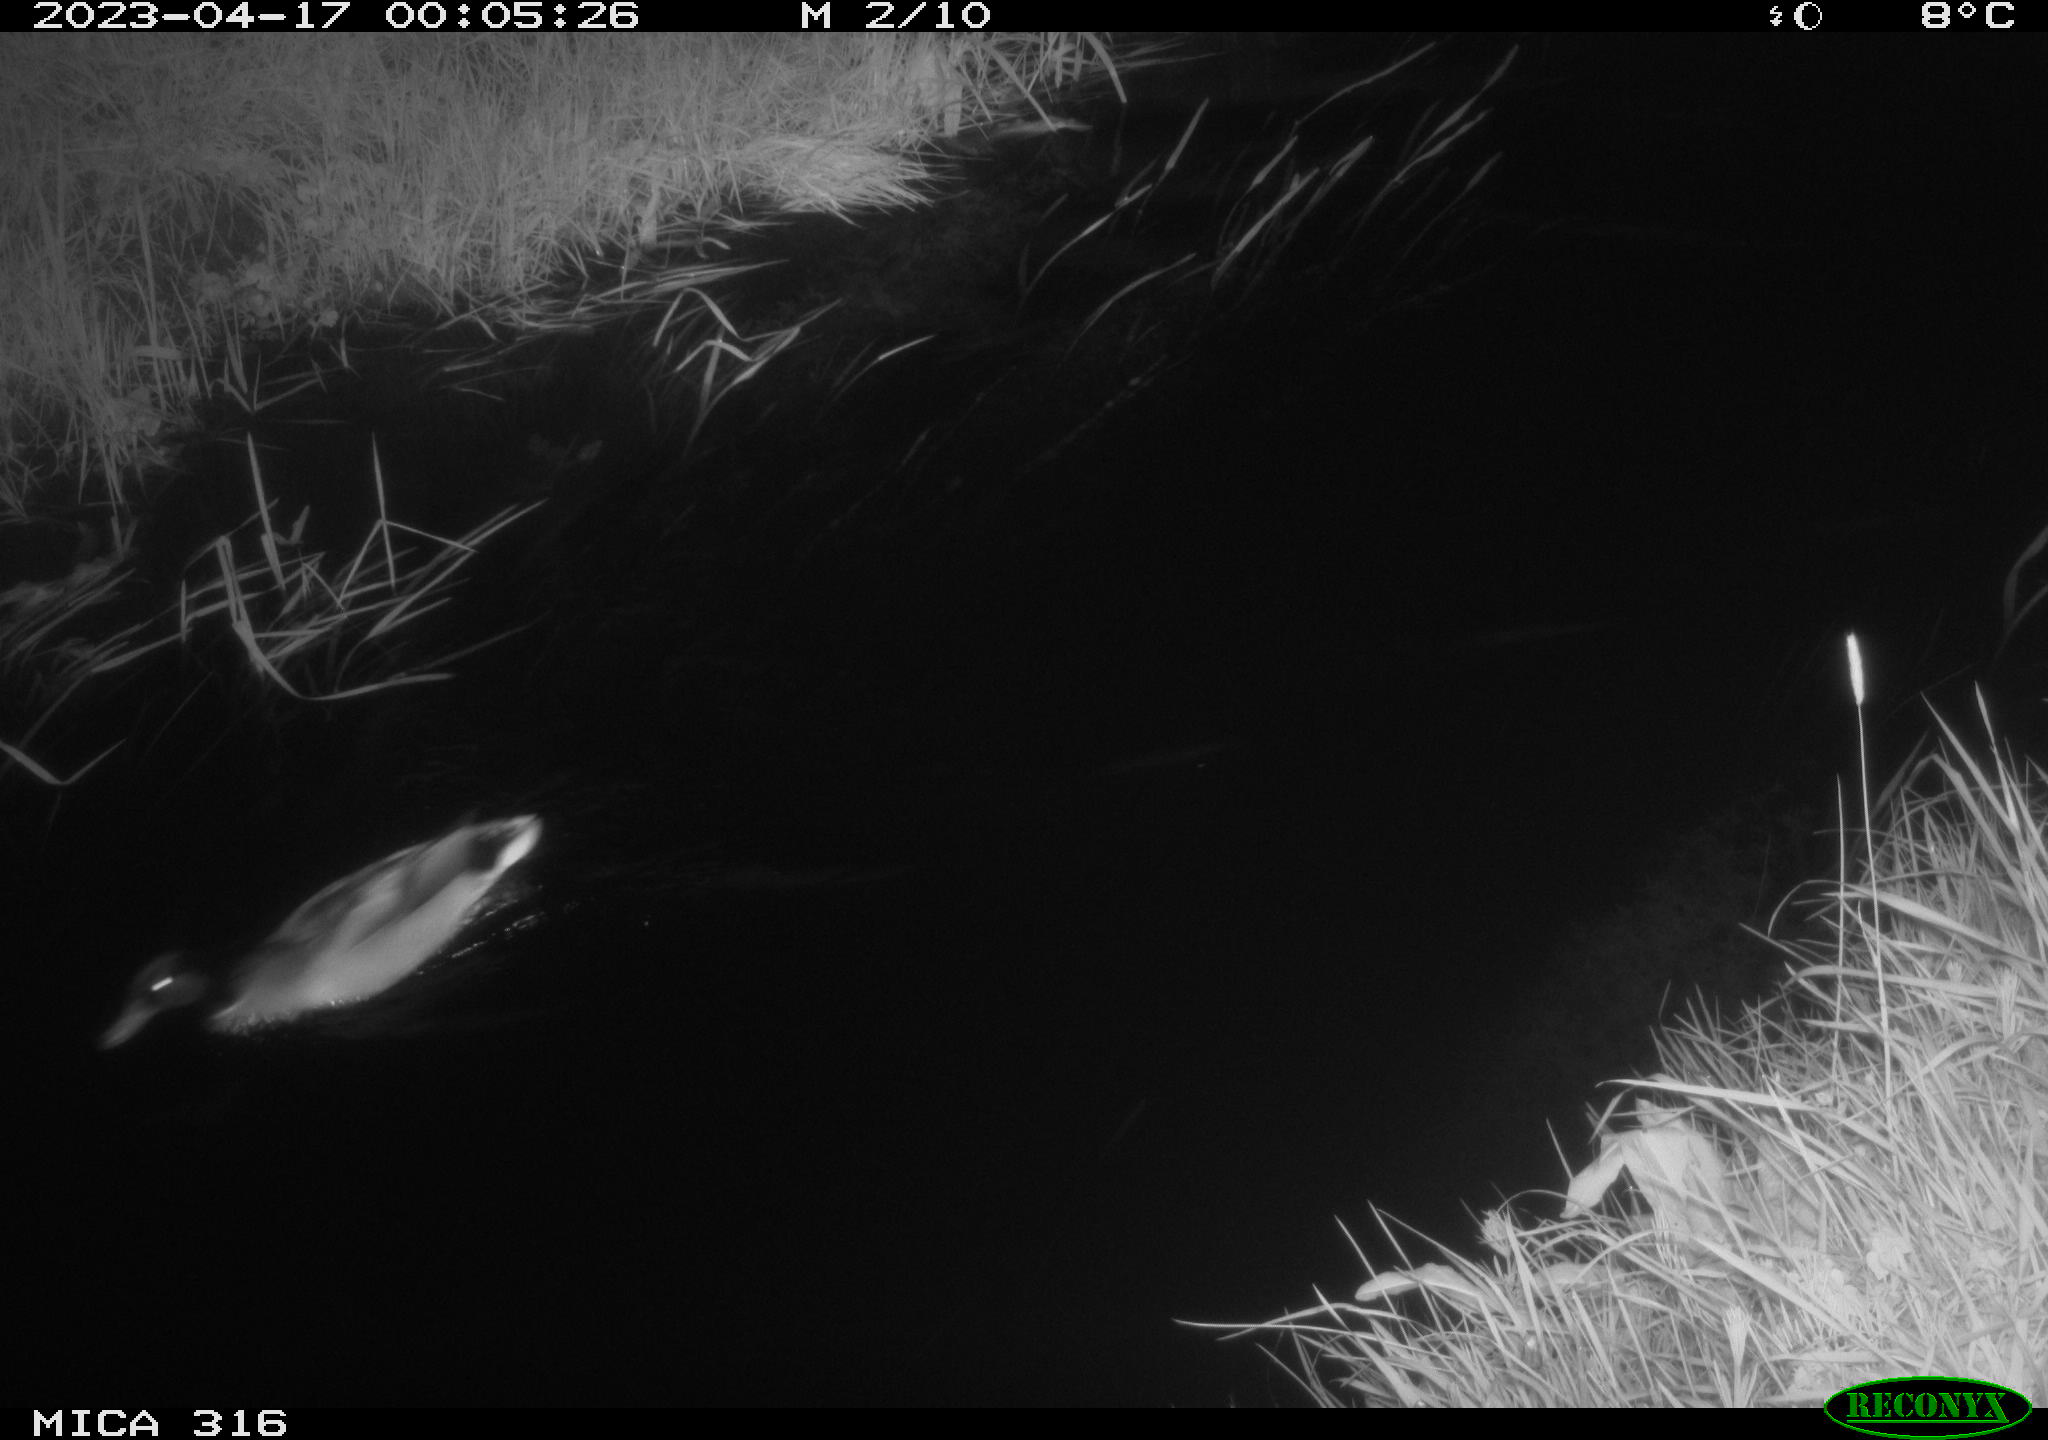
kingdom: Animalia
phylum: Chordata
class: Aves
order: Anseriformes
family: Anatidae
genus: Anas
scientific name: Anas
